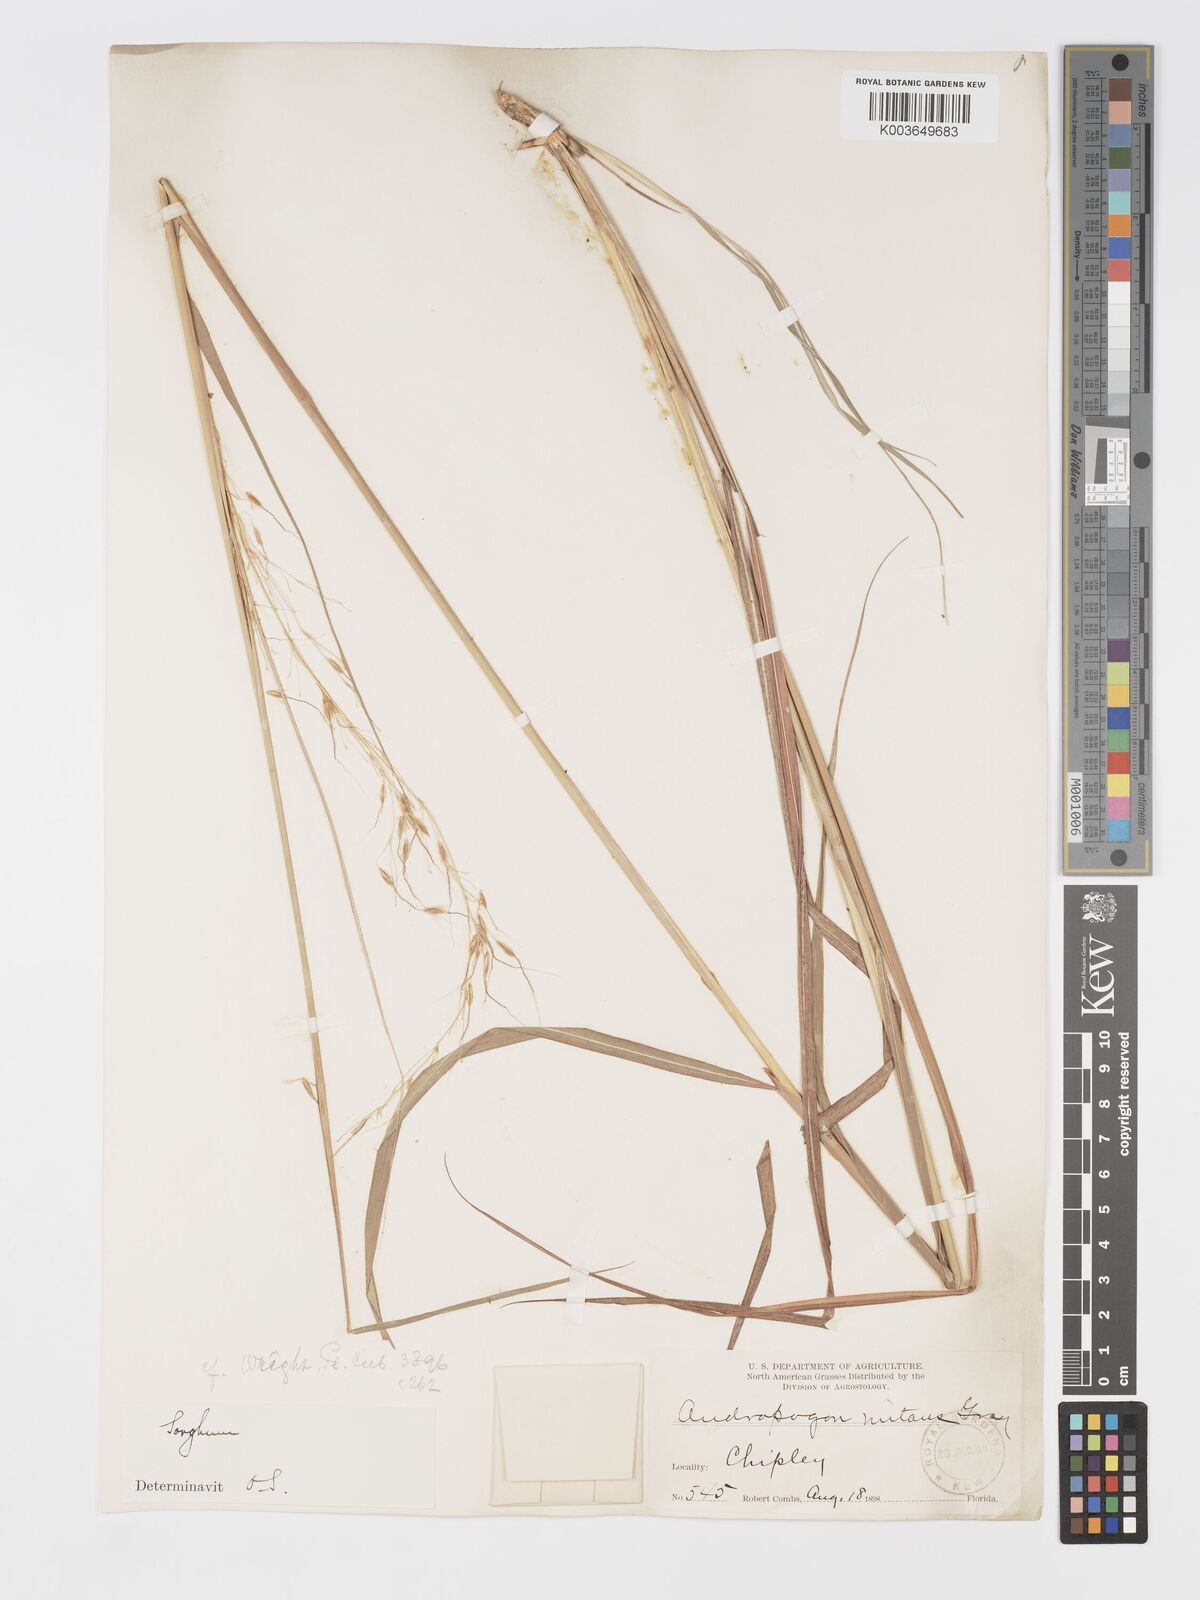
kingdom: Plantae
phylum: Tracheophyta
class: Liliopsida
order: Poales
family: Poaceae
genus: Sorghastrum
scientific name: Sorghastrum nutans
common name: Indian grass
